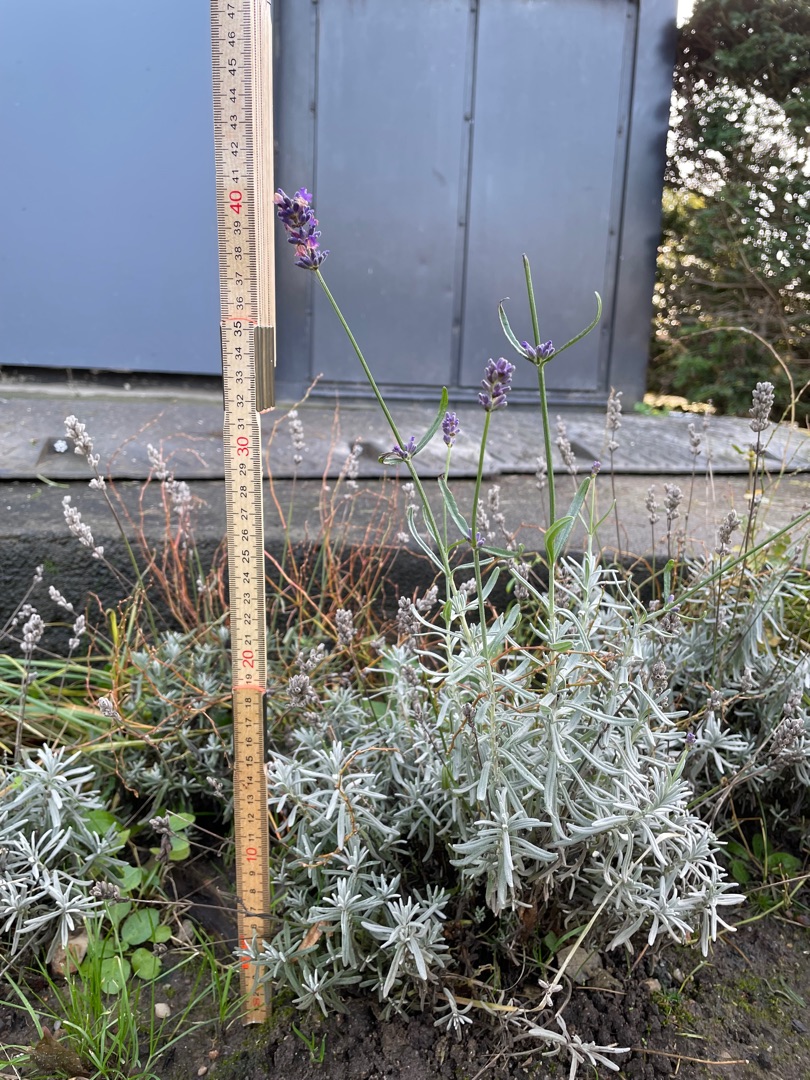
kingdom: Plantae
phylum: Tracheophyta
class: Magnoliopsida
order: Lamiales
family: Lamiaceae
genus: Lavandula
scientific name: Lavandula angustifolia
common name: Ægte lavendel
